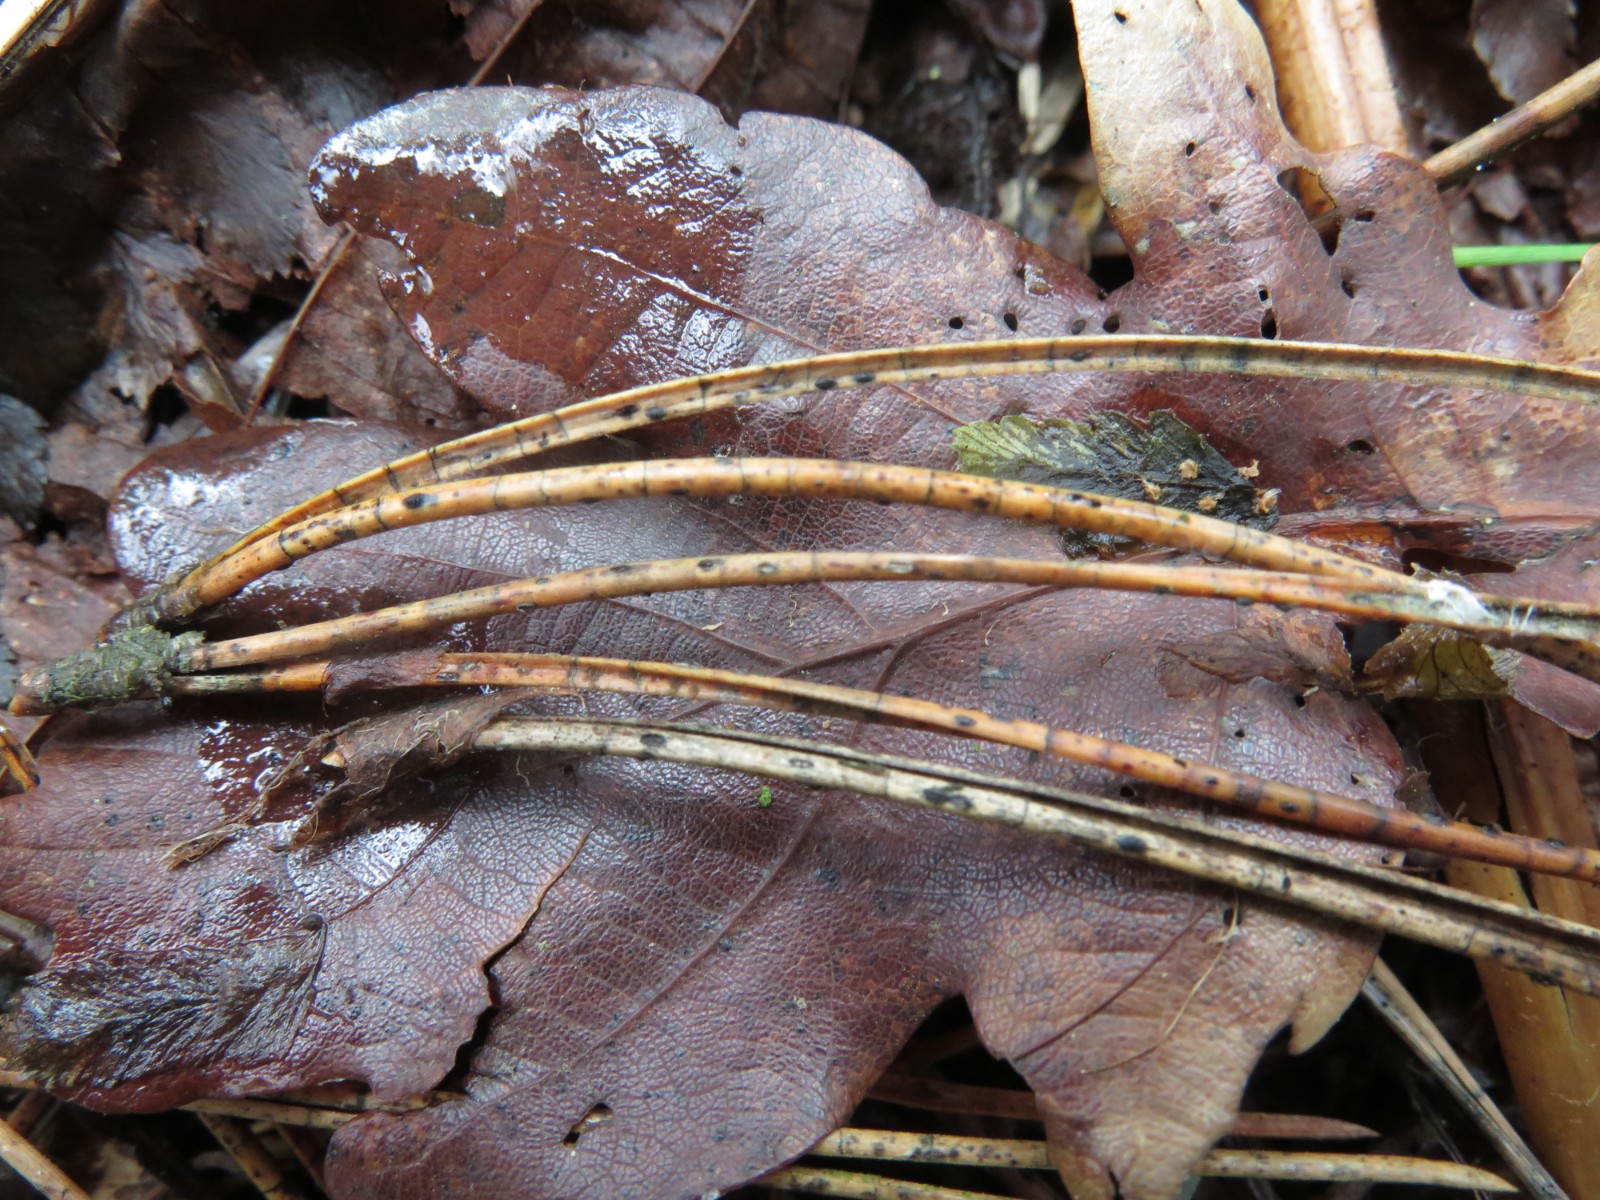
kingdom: Fungi
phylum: Ascomycota
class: Leotiomycetes
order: Rhytismatales
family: Rhytismataceae
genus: Lophodermium
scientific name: Lophodermium pinastri
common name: fyrre-fureplet
